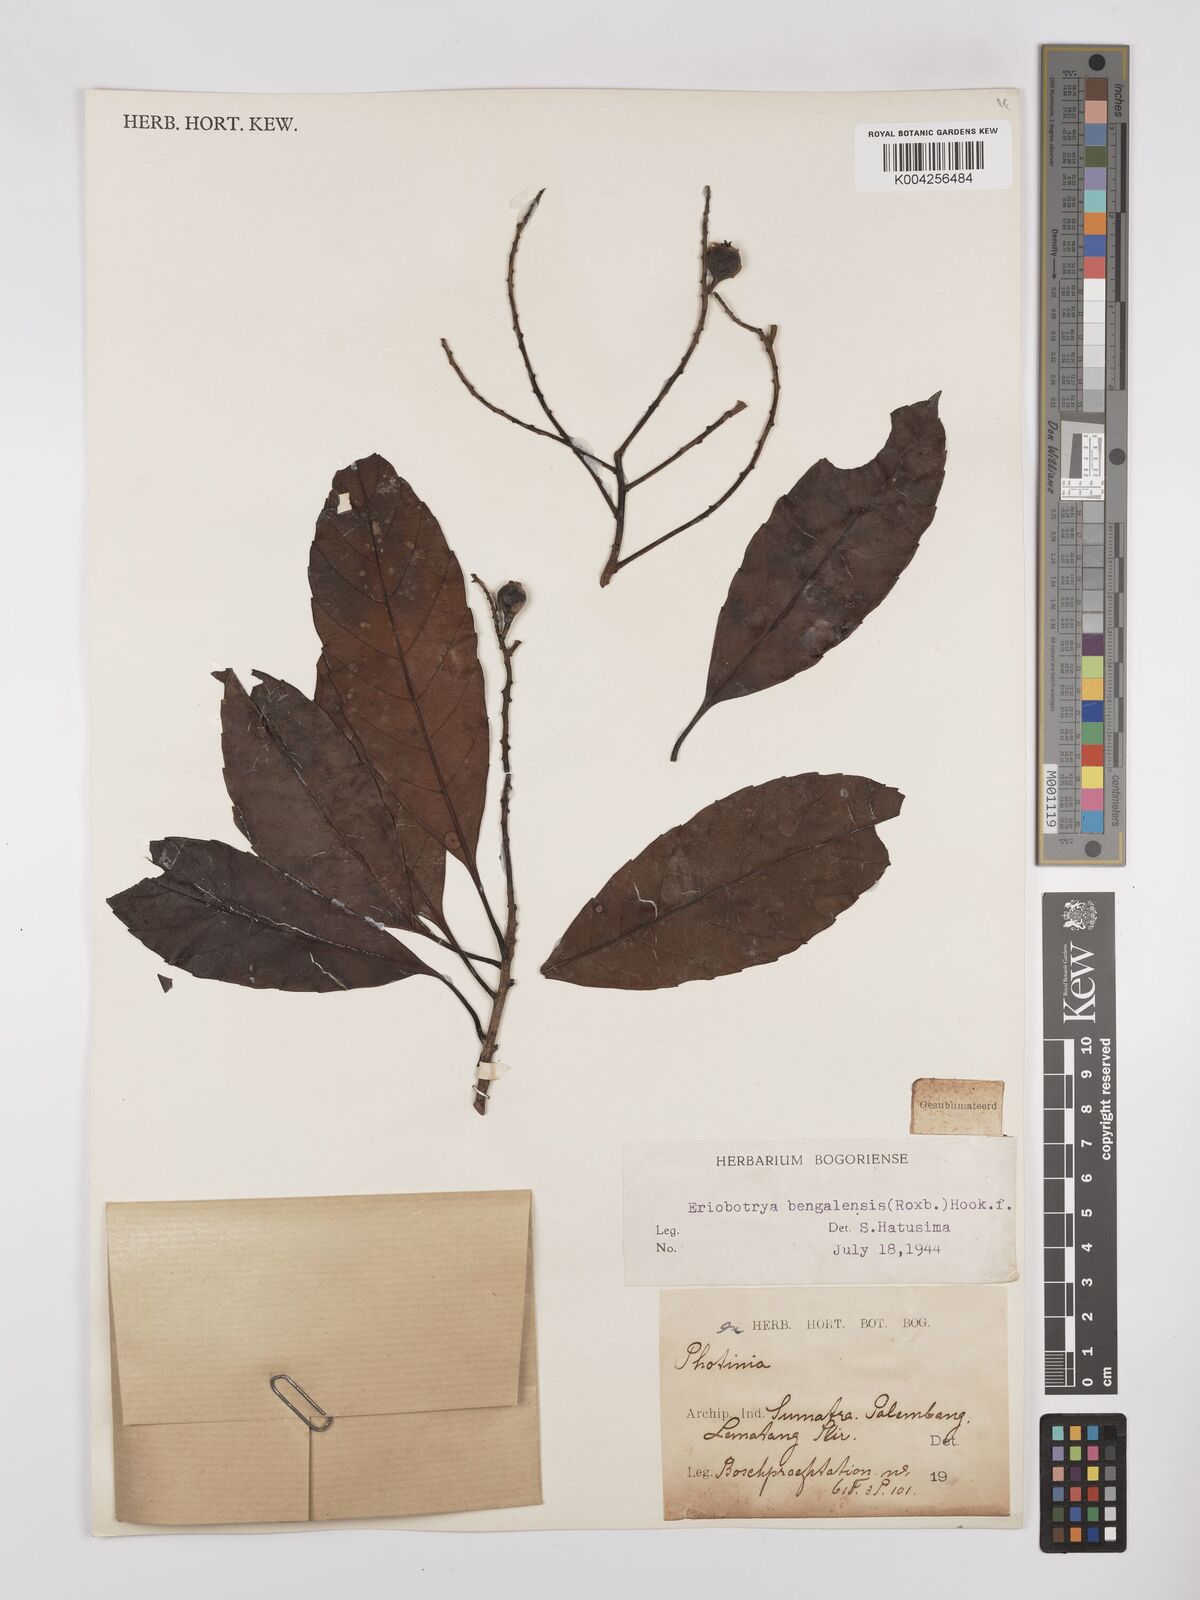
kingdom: Plantae
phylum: Tracheophyta
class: Magnoliopsida
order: Rosales
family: Rosaceae
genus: Rhaphiolepis
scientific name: Rhaphiolepis bengalensis
